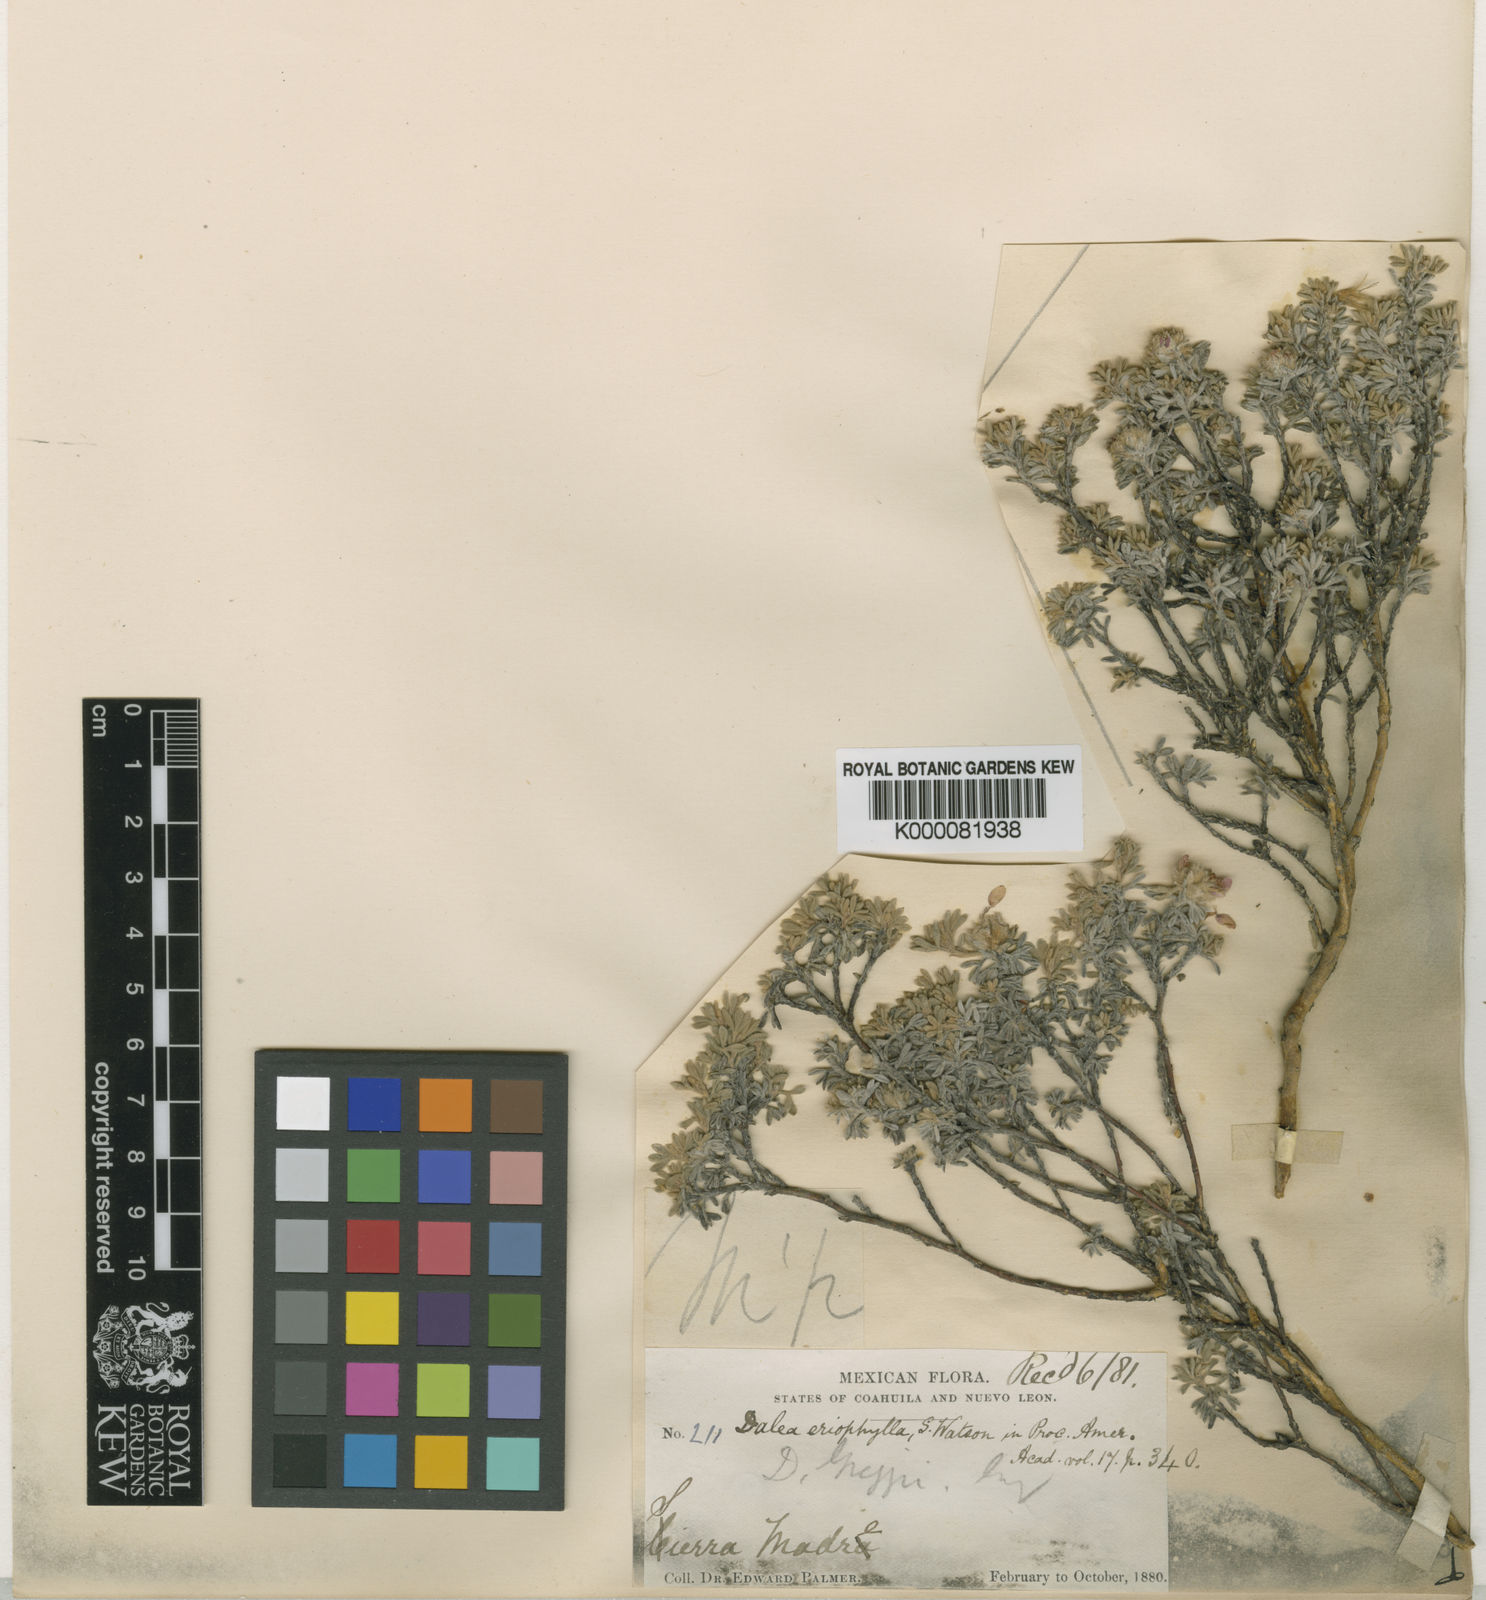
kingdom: Plantae
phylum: Tracheophyta
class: Magnoliopsida
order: Fabales
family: Fabaceae
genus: Dalea
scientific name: Dalea eriophylla
